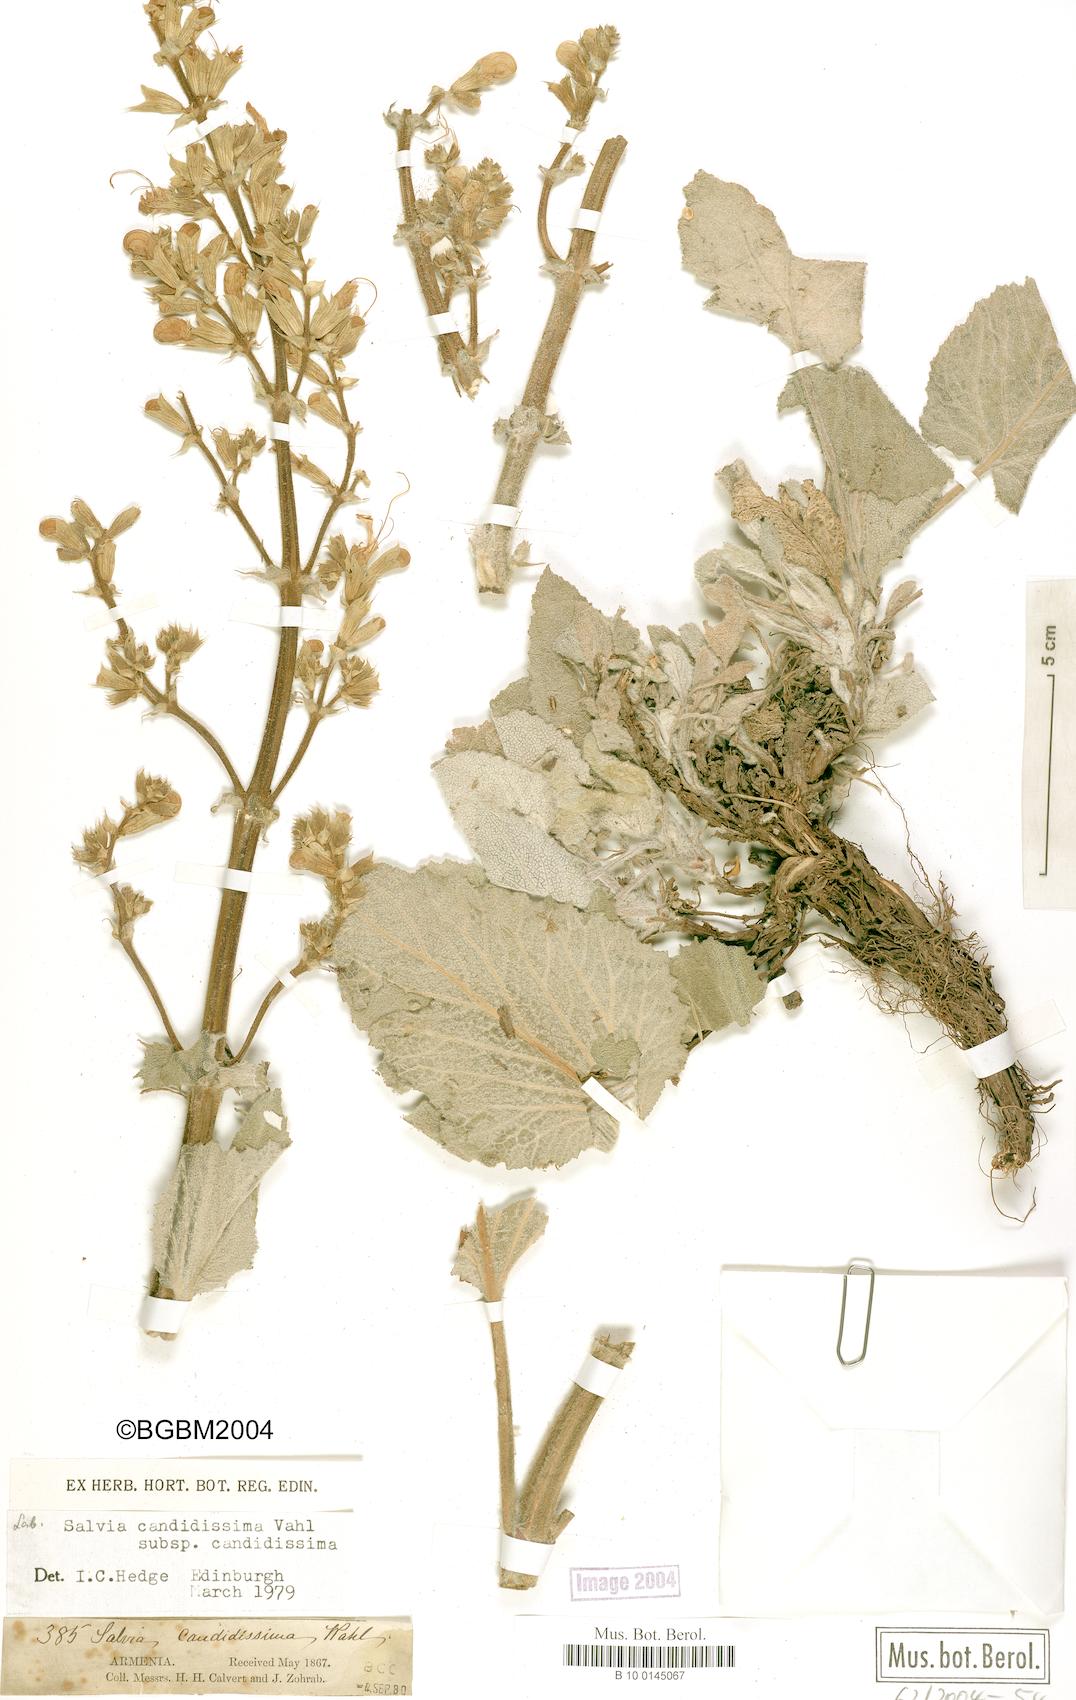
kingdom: Plantae
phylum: Tracheophyta
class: Magnoliopsida
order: Lamiales
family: Lamiaceae
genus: Salvia
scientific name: Salvia candidissima
